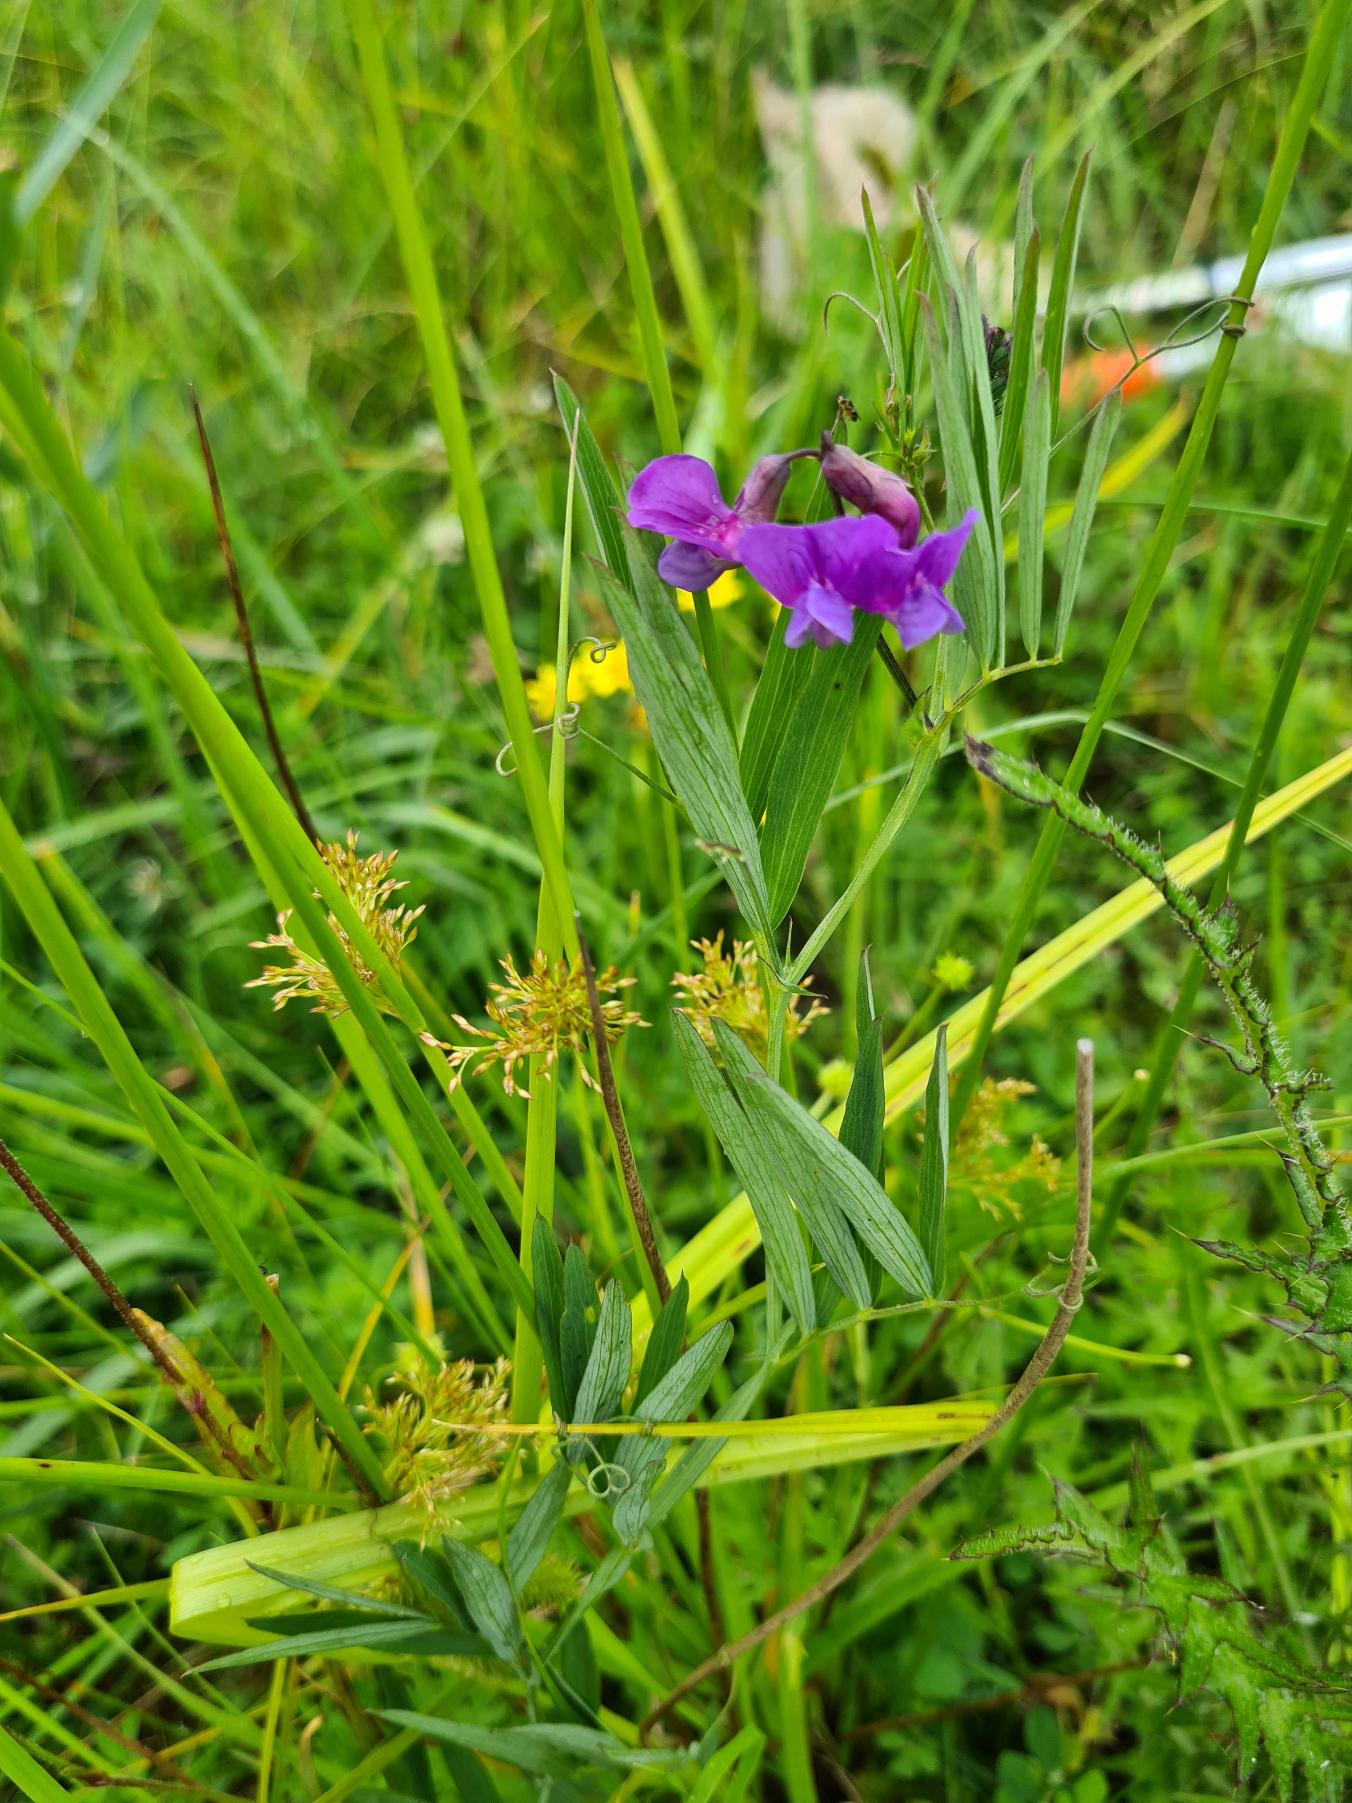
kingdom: Plantae
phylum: Tracheophyta
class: Magnoliopsida
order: Fabales
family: Fabaceae
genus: Lathyrus
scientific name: Lathyrus palustris
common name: Kær-fladbælg
